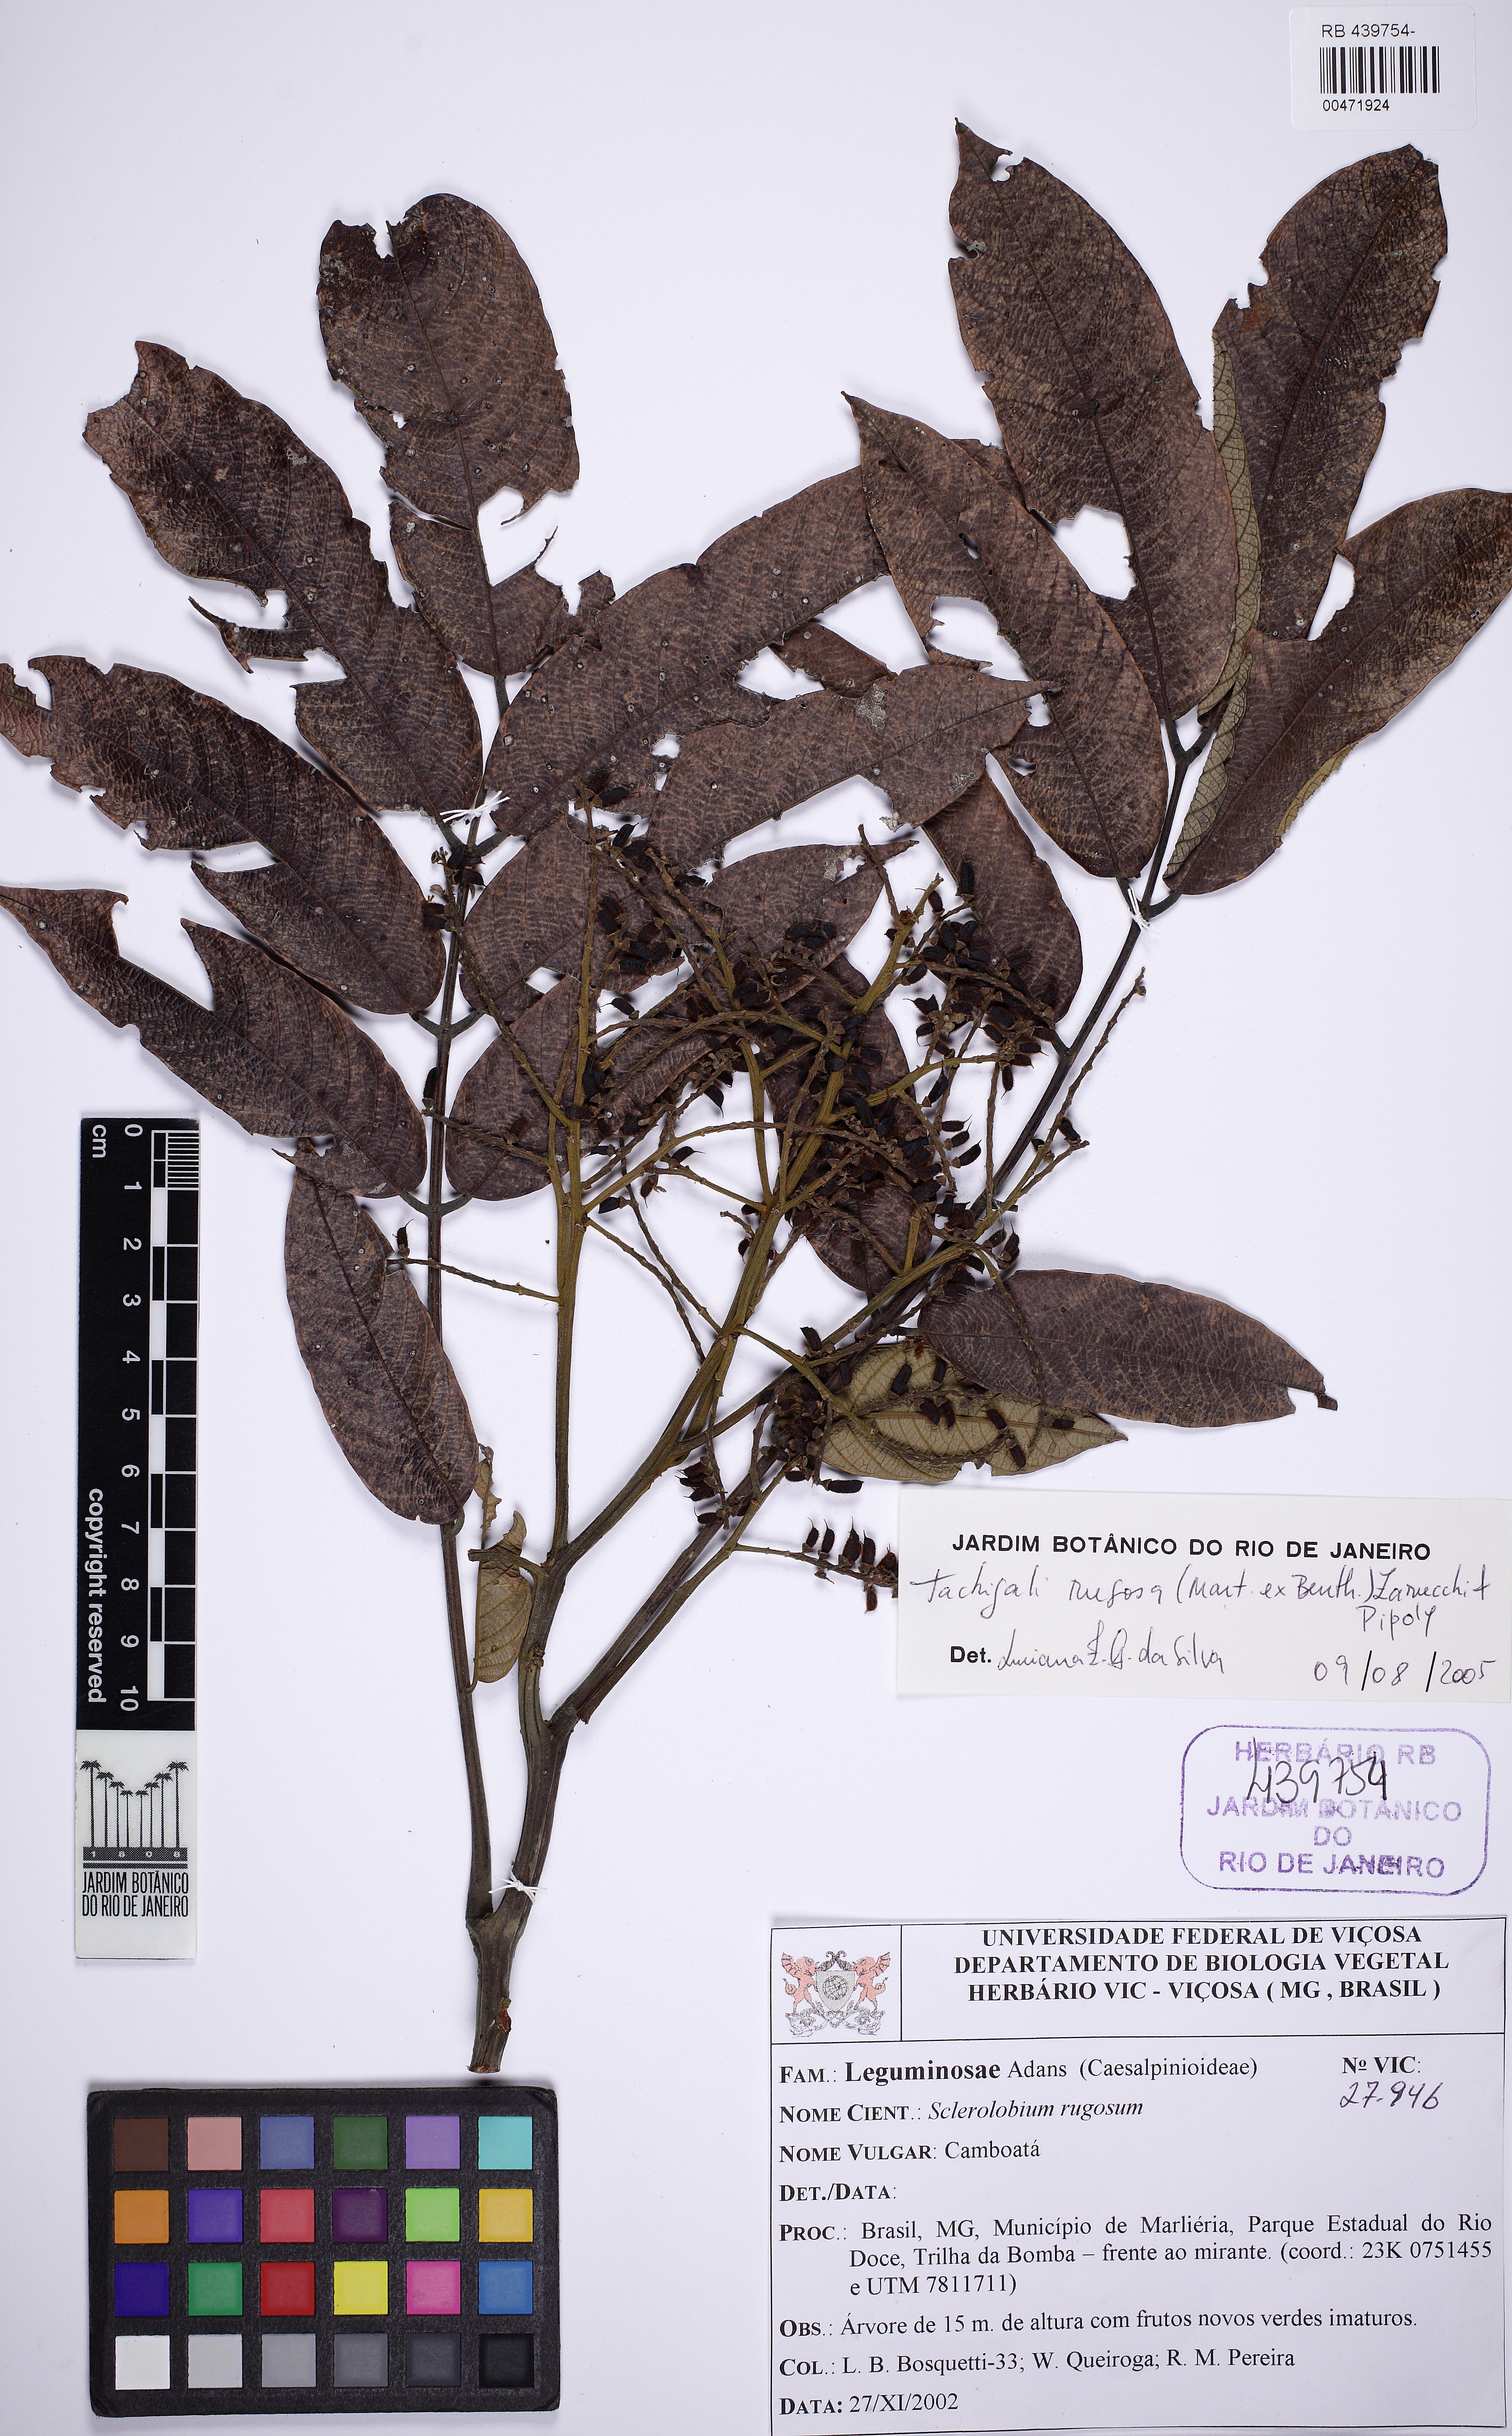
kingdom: Plantae
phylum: Tracheophyta
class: Magnoliopsida
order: Fabales
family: Fabaceae
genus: Tachigali
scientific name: Tachigali rugosa
